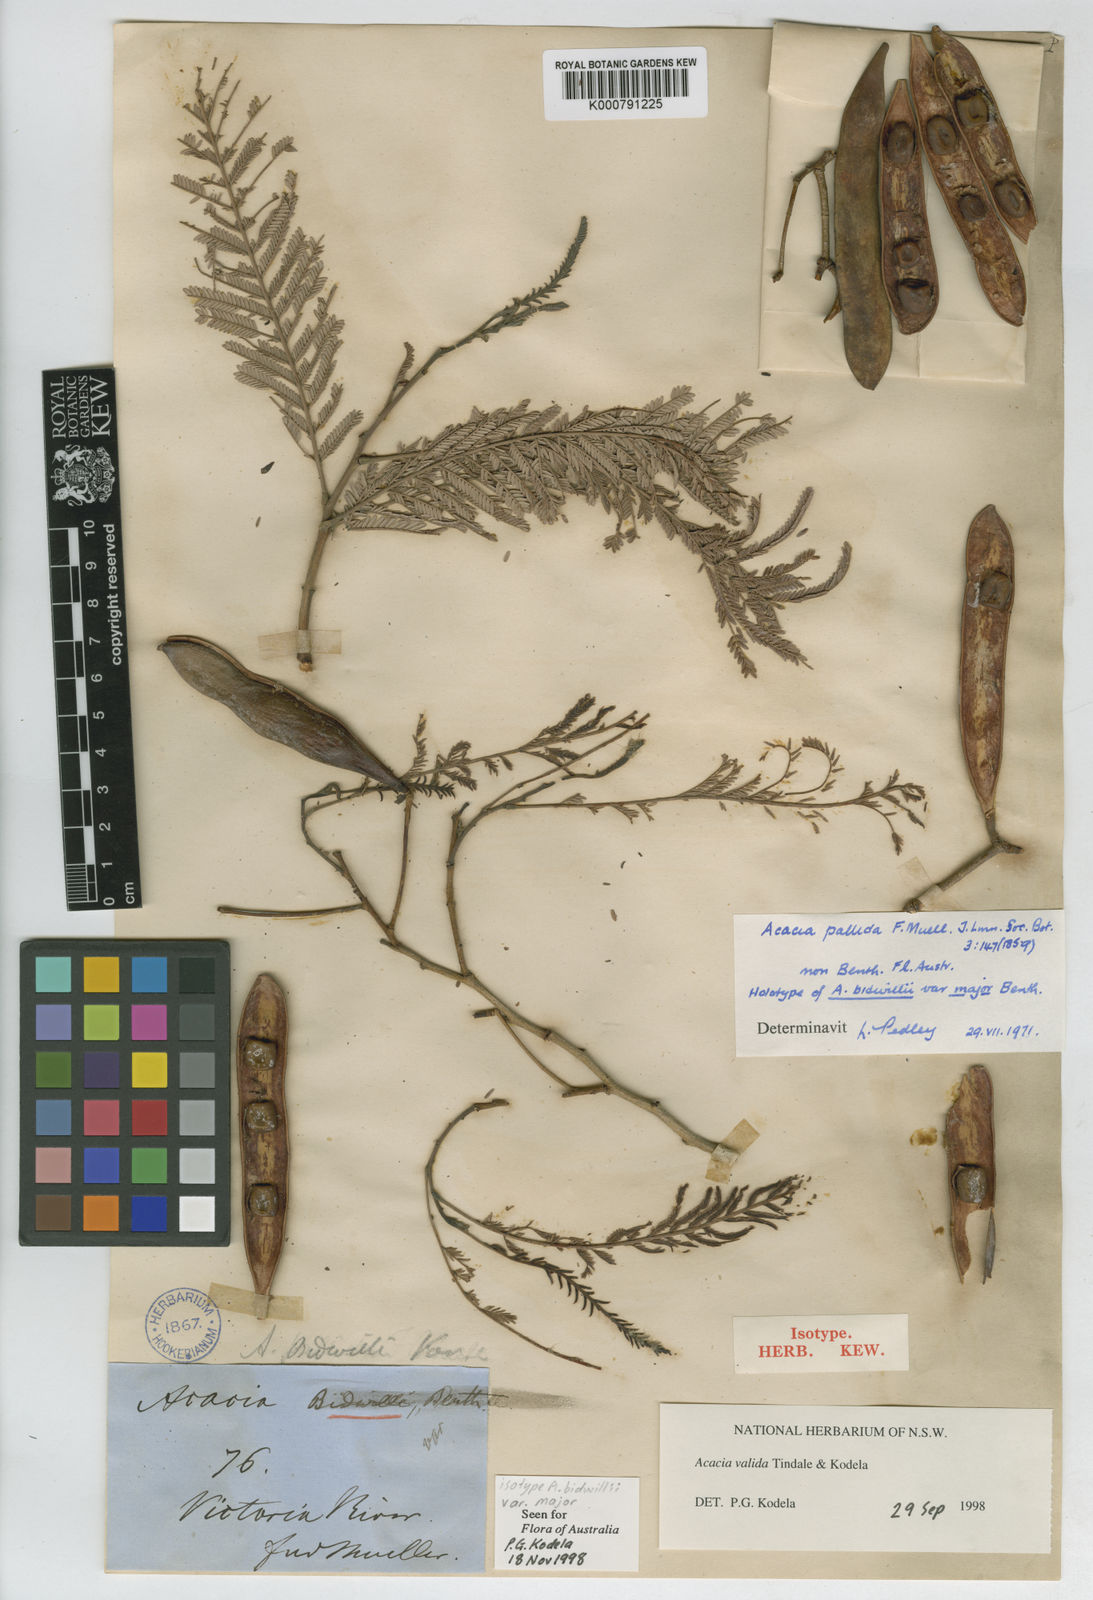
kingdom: Plantae
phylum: Tracheophyta
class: Magnoliopsida
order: Fabales
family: Fabaceae
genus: Vachellia
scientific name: Vachellia valida
